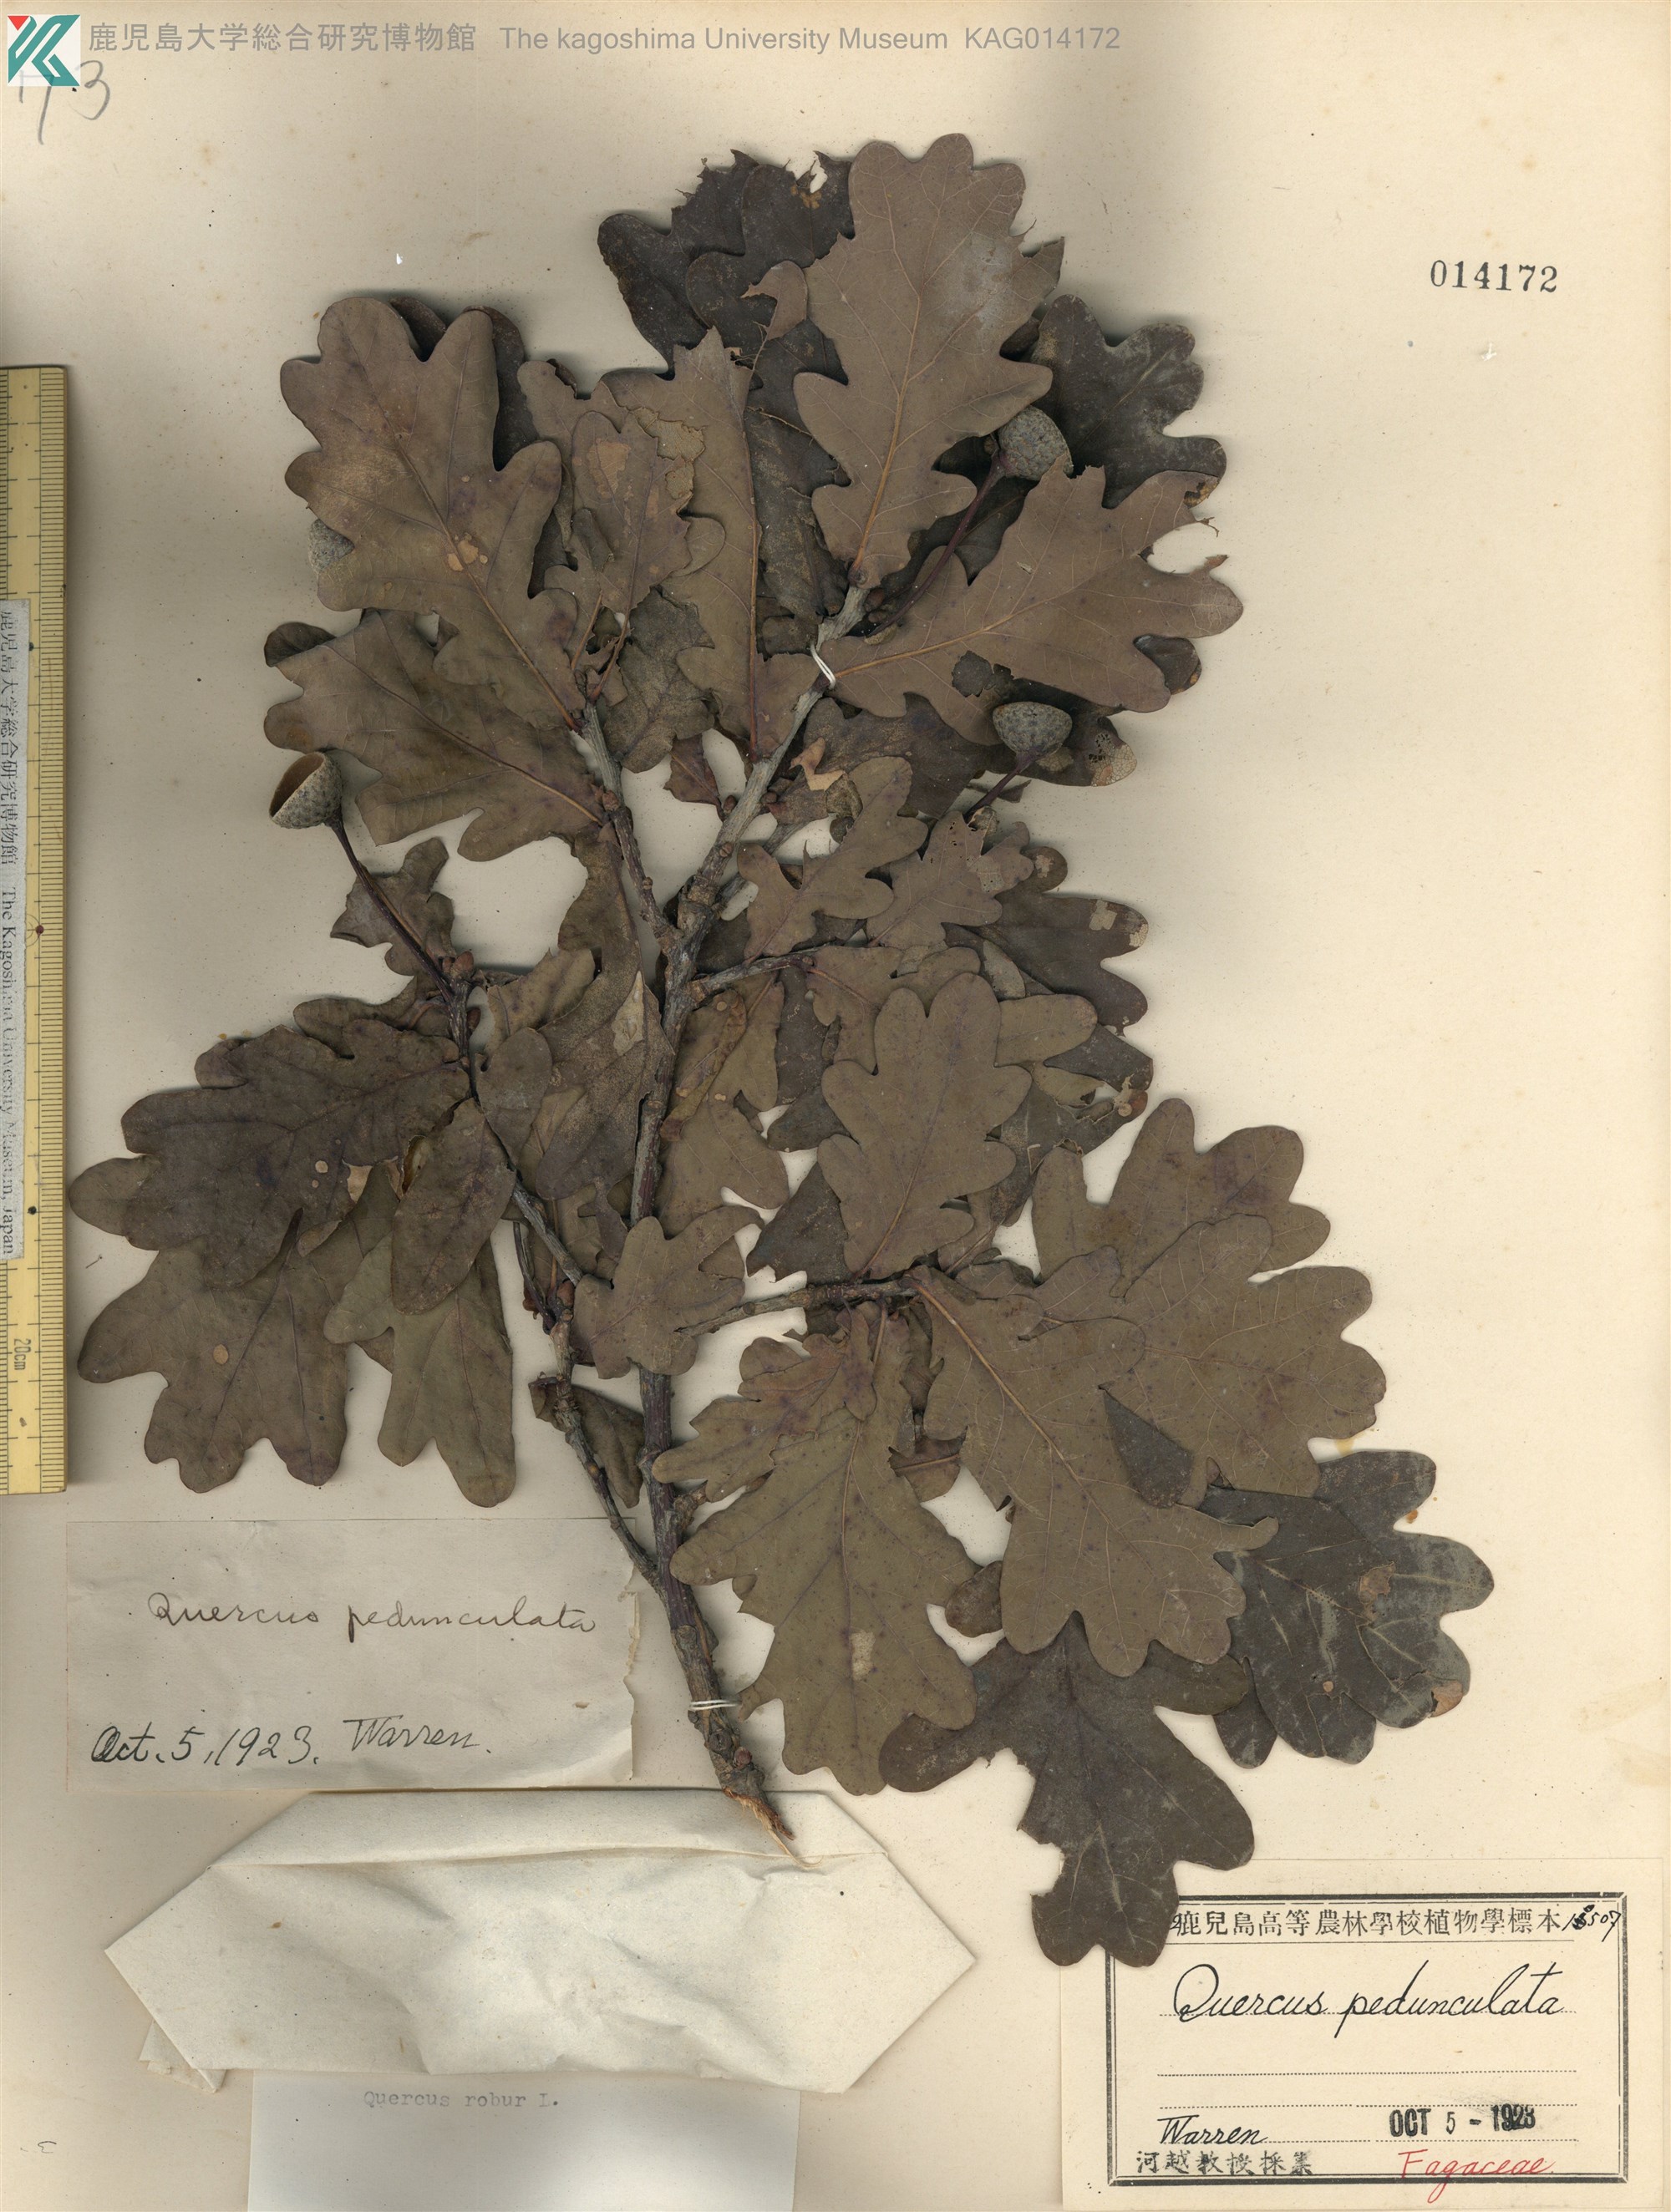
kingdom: Plantae
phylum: Tracheophyta
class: Magnoliopsida
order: Fagales
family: Fagaceae
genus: Quercus
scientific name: Quercus robur
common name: Pedunculate oak
